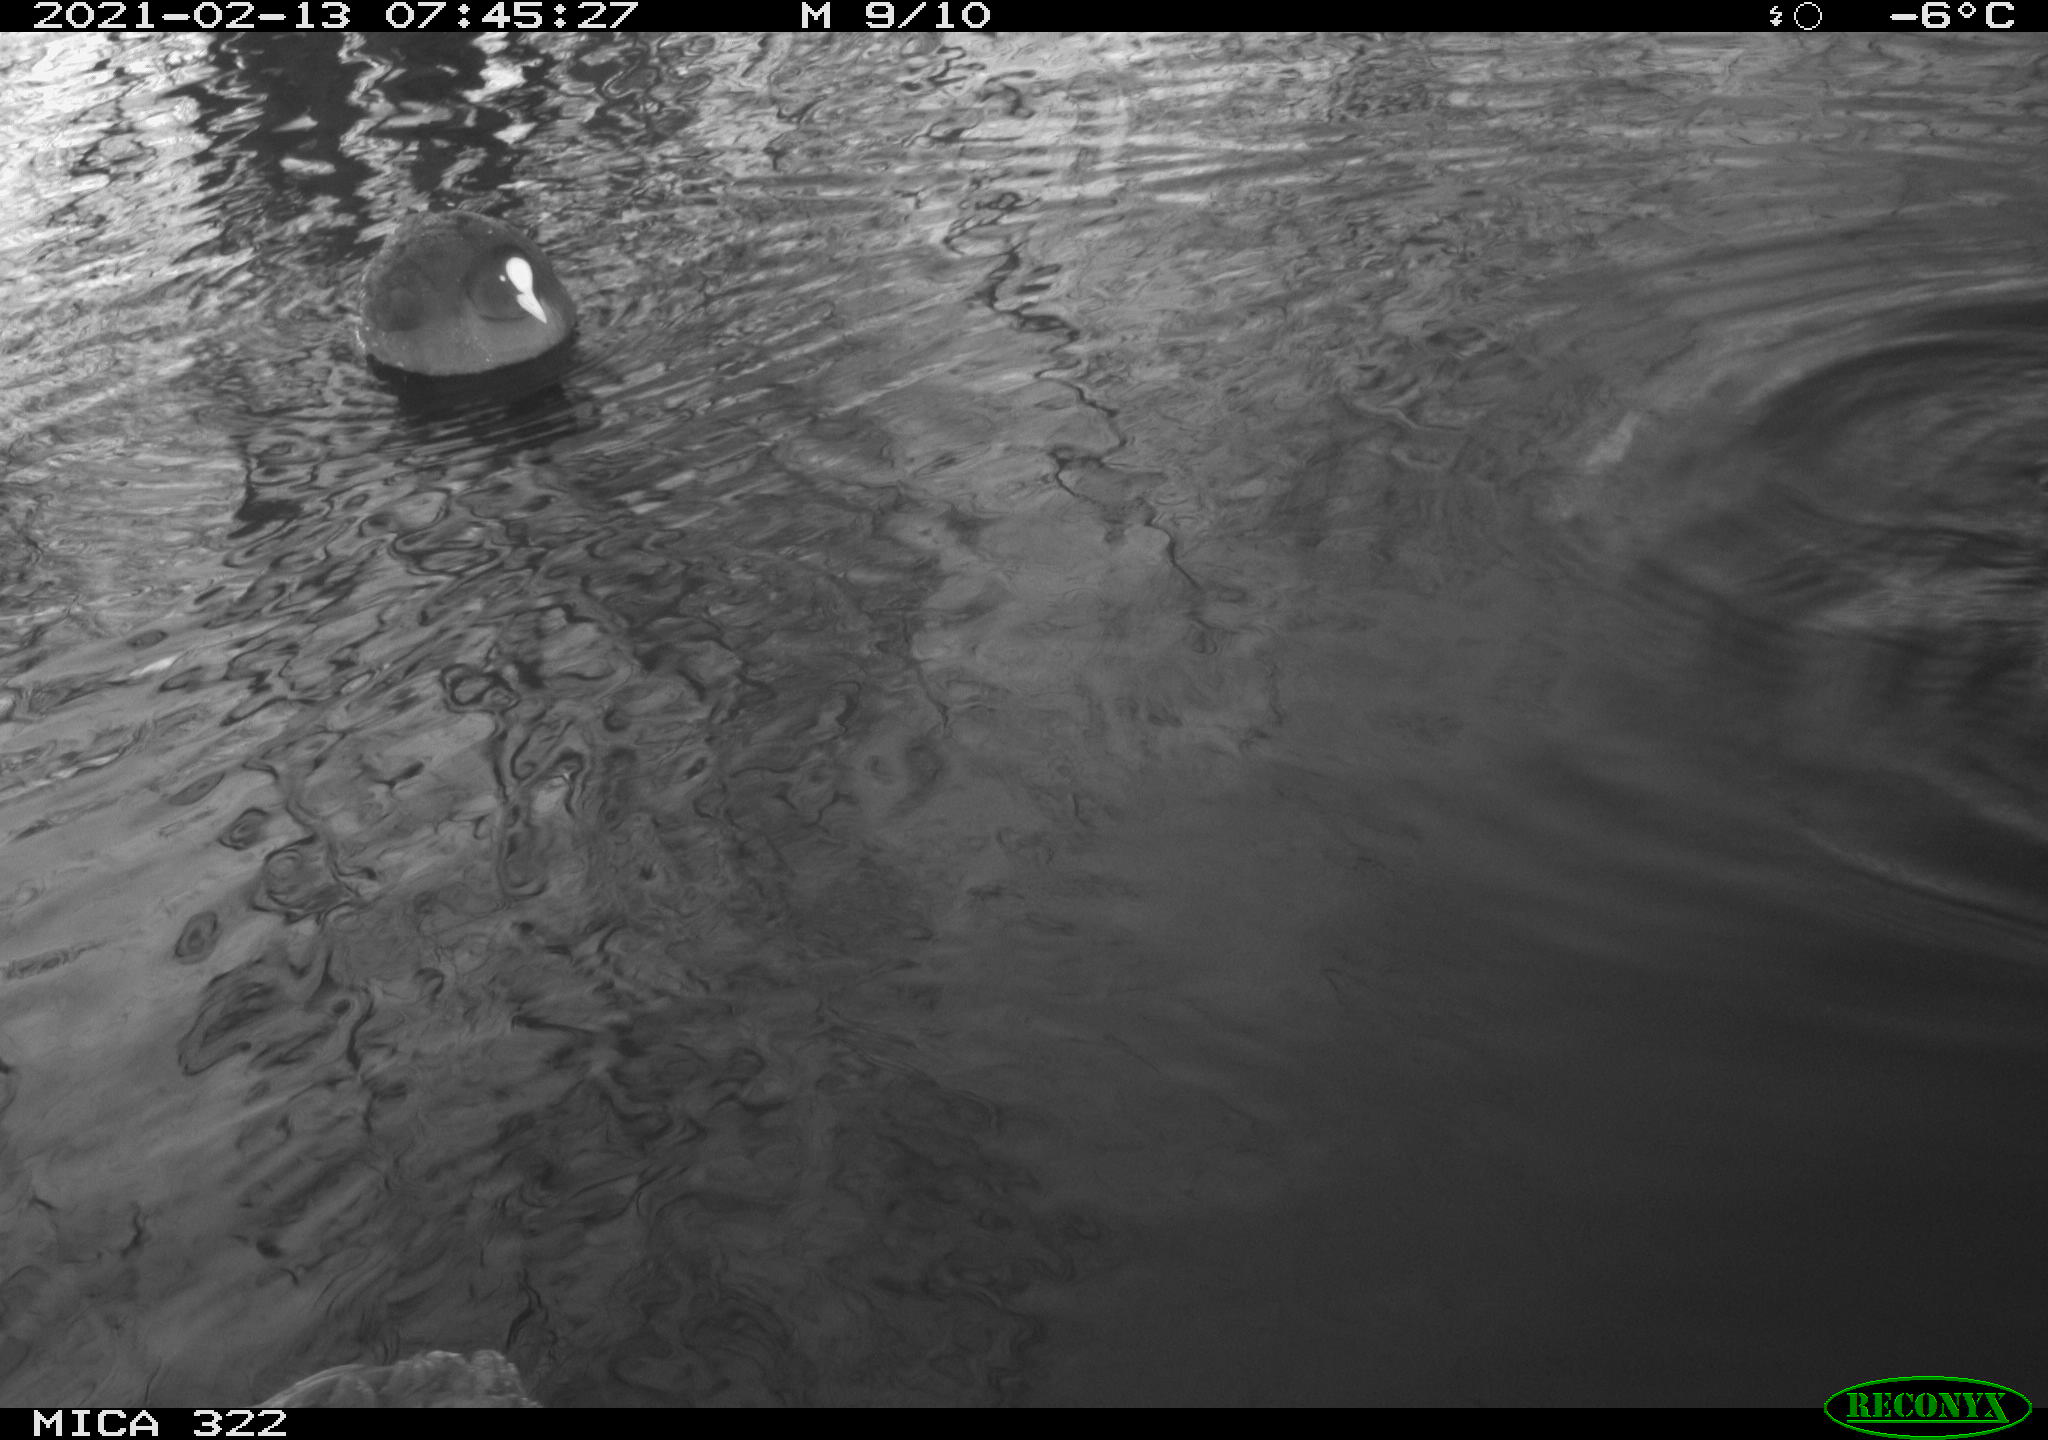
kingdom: Animalia
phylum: Chordata
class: Aves
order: Gruiformes
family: Rallidae
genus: Fulica
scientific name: Fulica atra
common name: Eurasian coot
